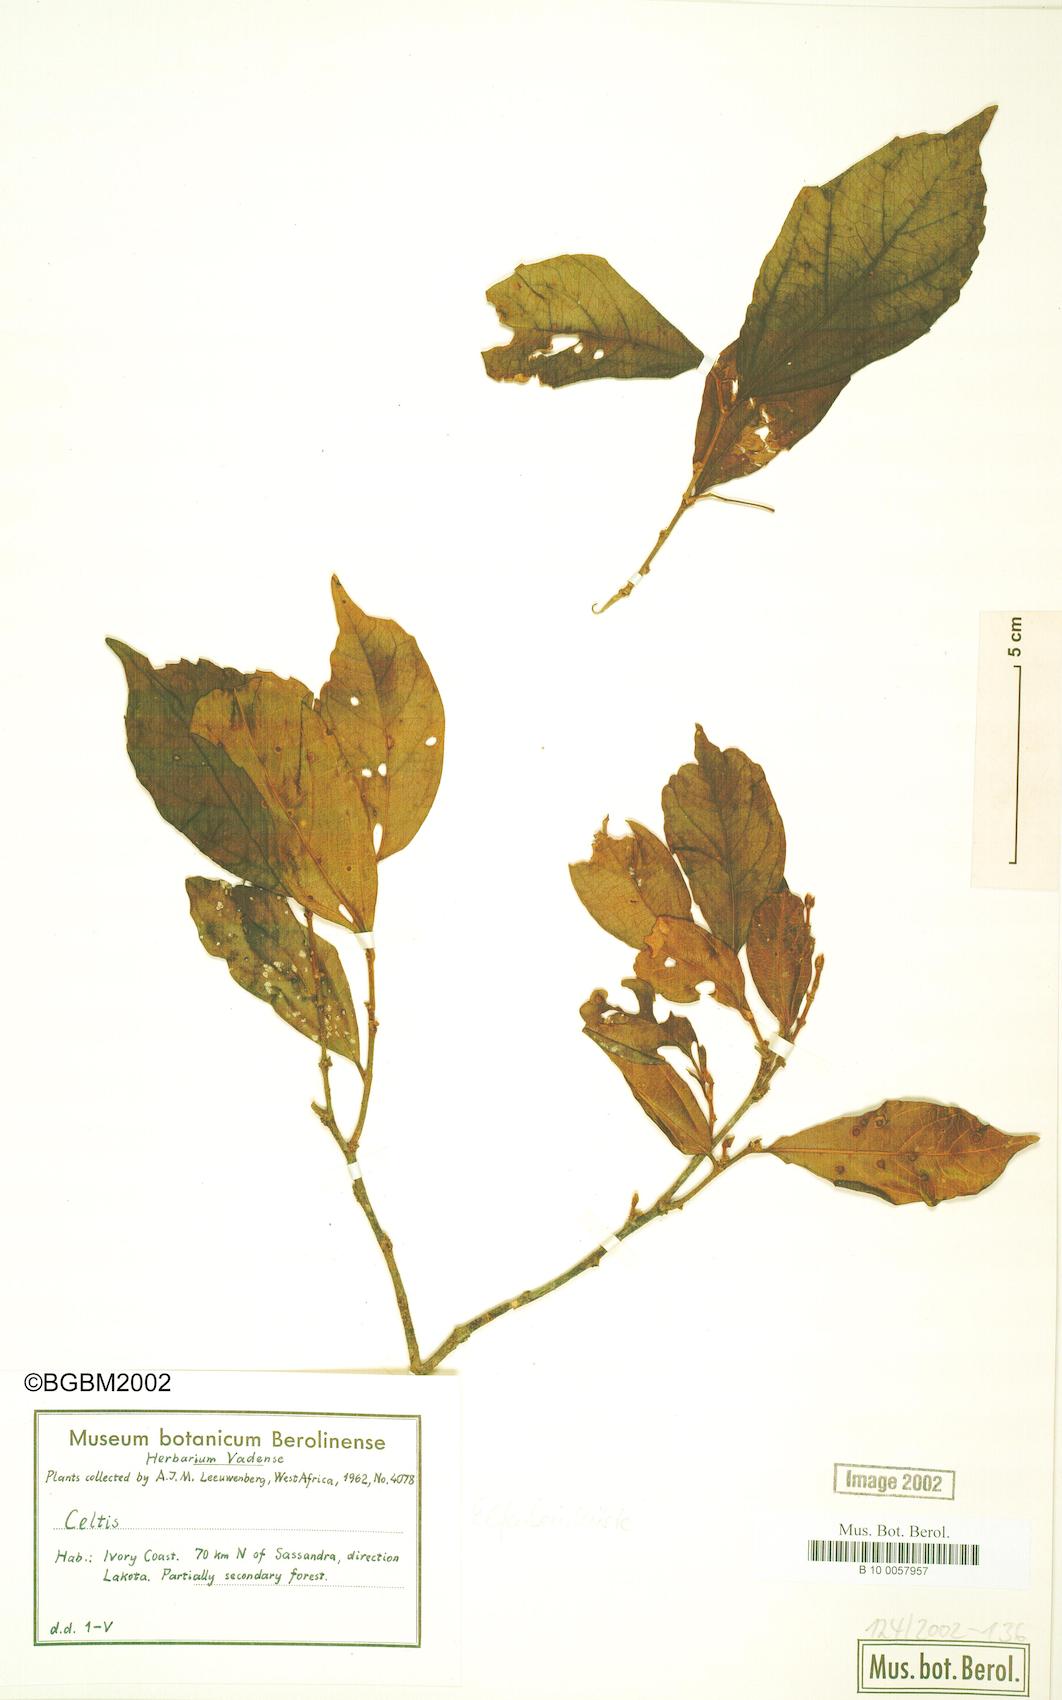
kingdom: Plantae
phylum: Tracheophyta
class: Magnoliopsida
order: Rosales
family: Cannabaceae
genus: Celtis
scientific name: Celtis
